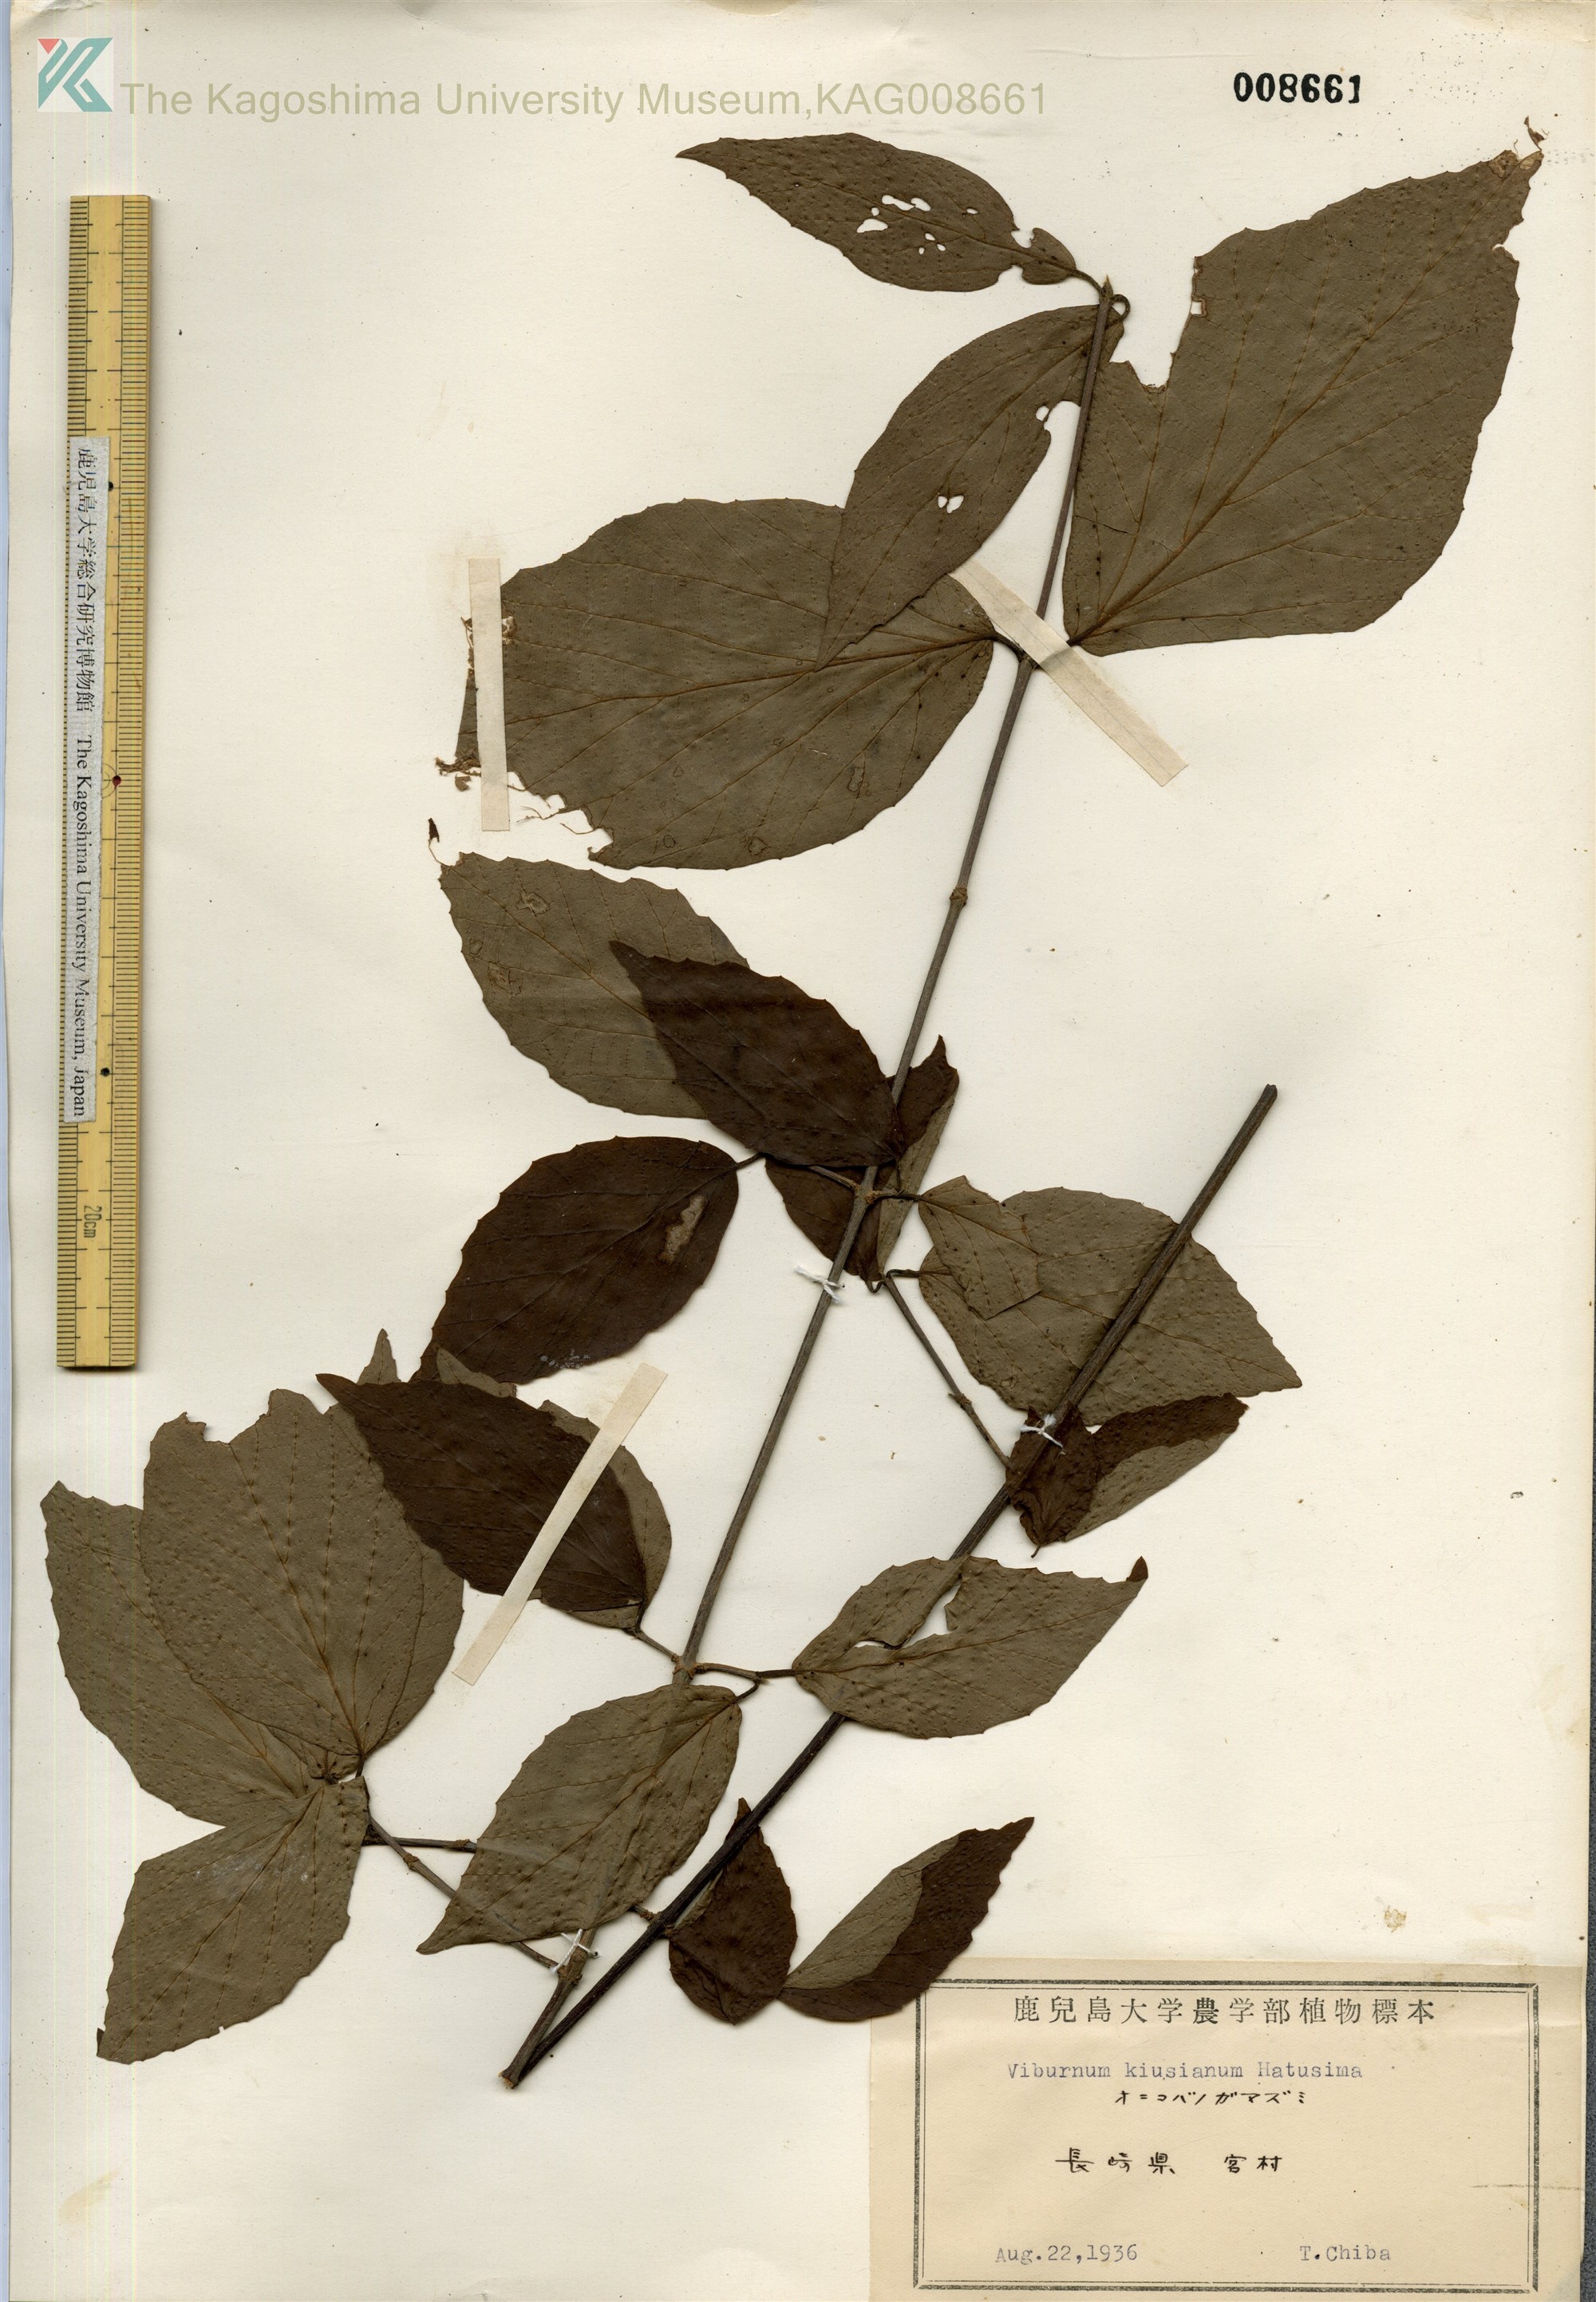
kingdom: Plantae
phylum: Tracheophyta
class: Magnoliopsida
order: Dipsacales
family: Viburnaceae
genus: Viburnum
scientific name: Viburnum kiusianum
